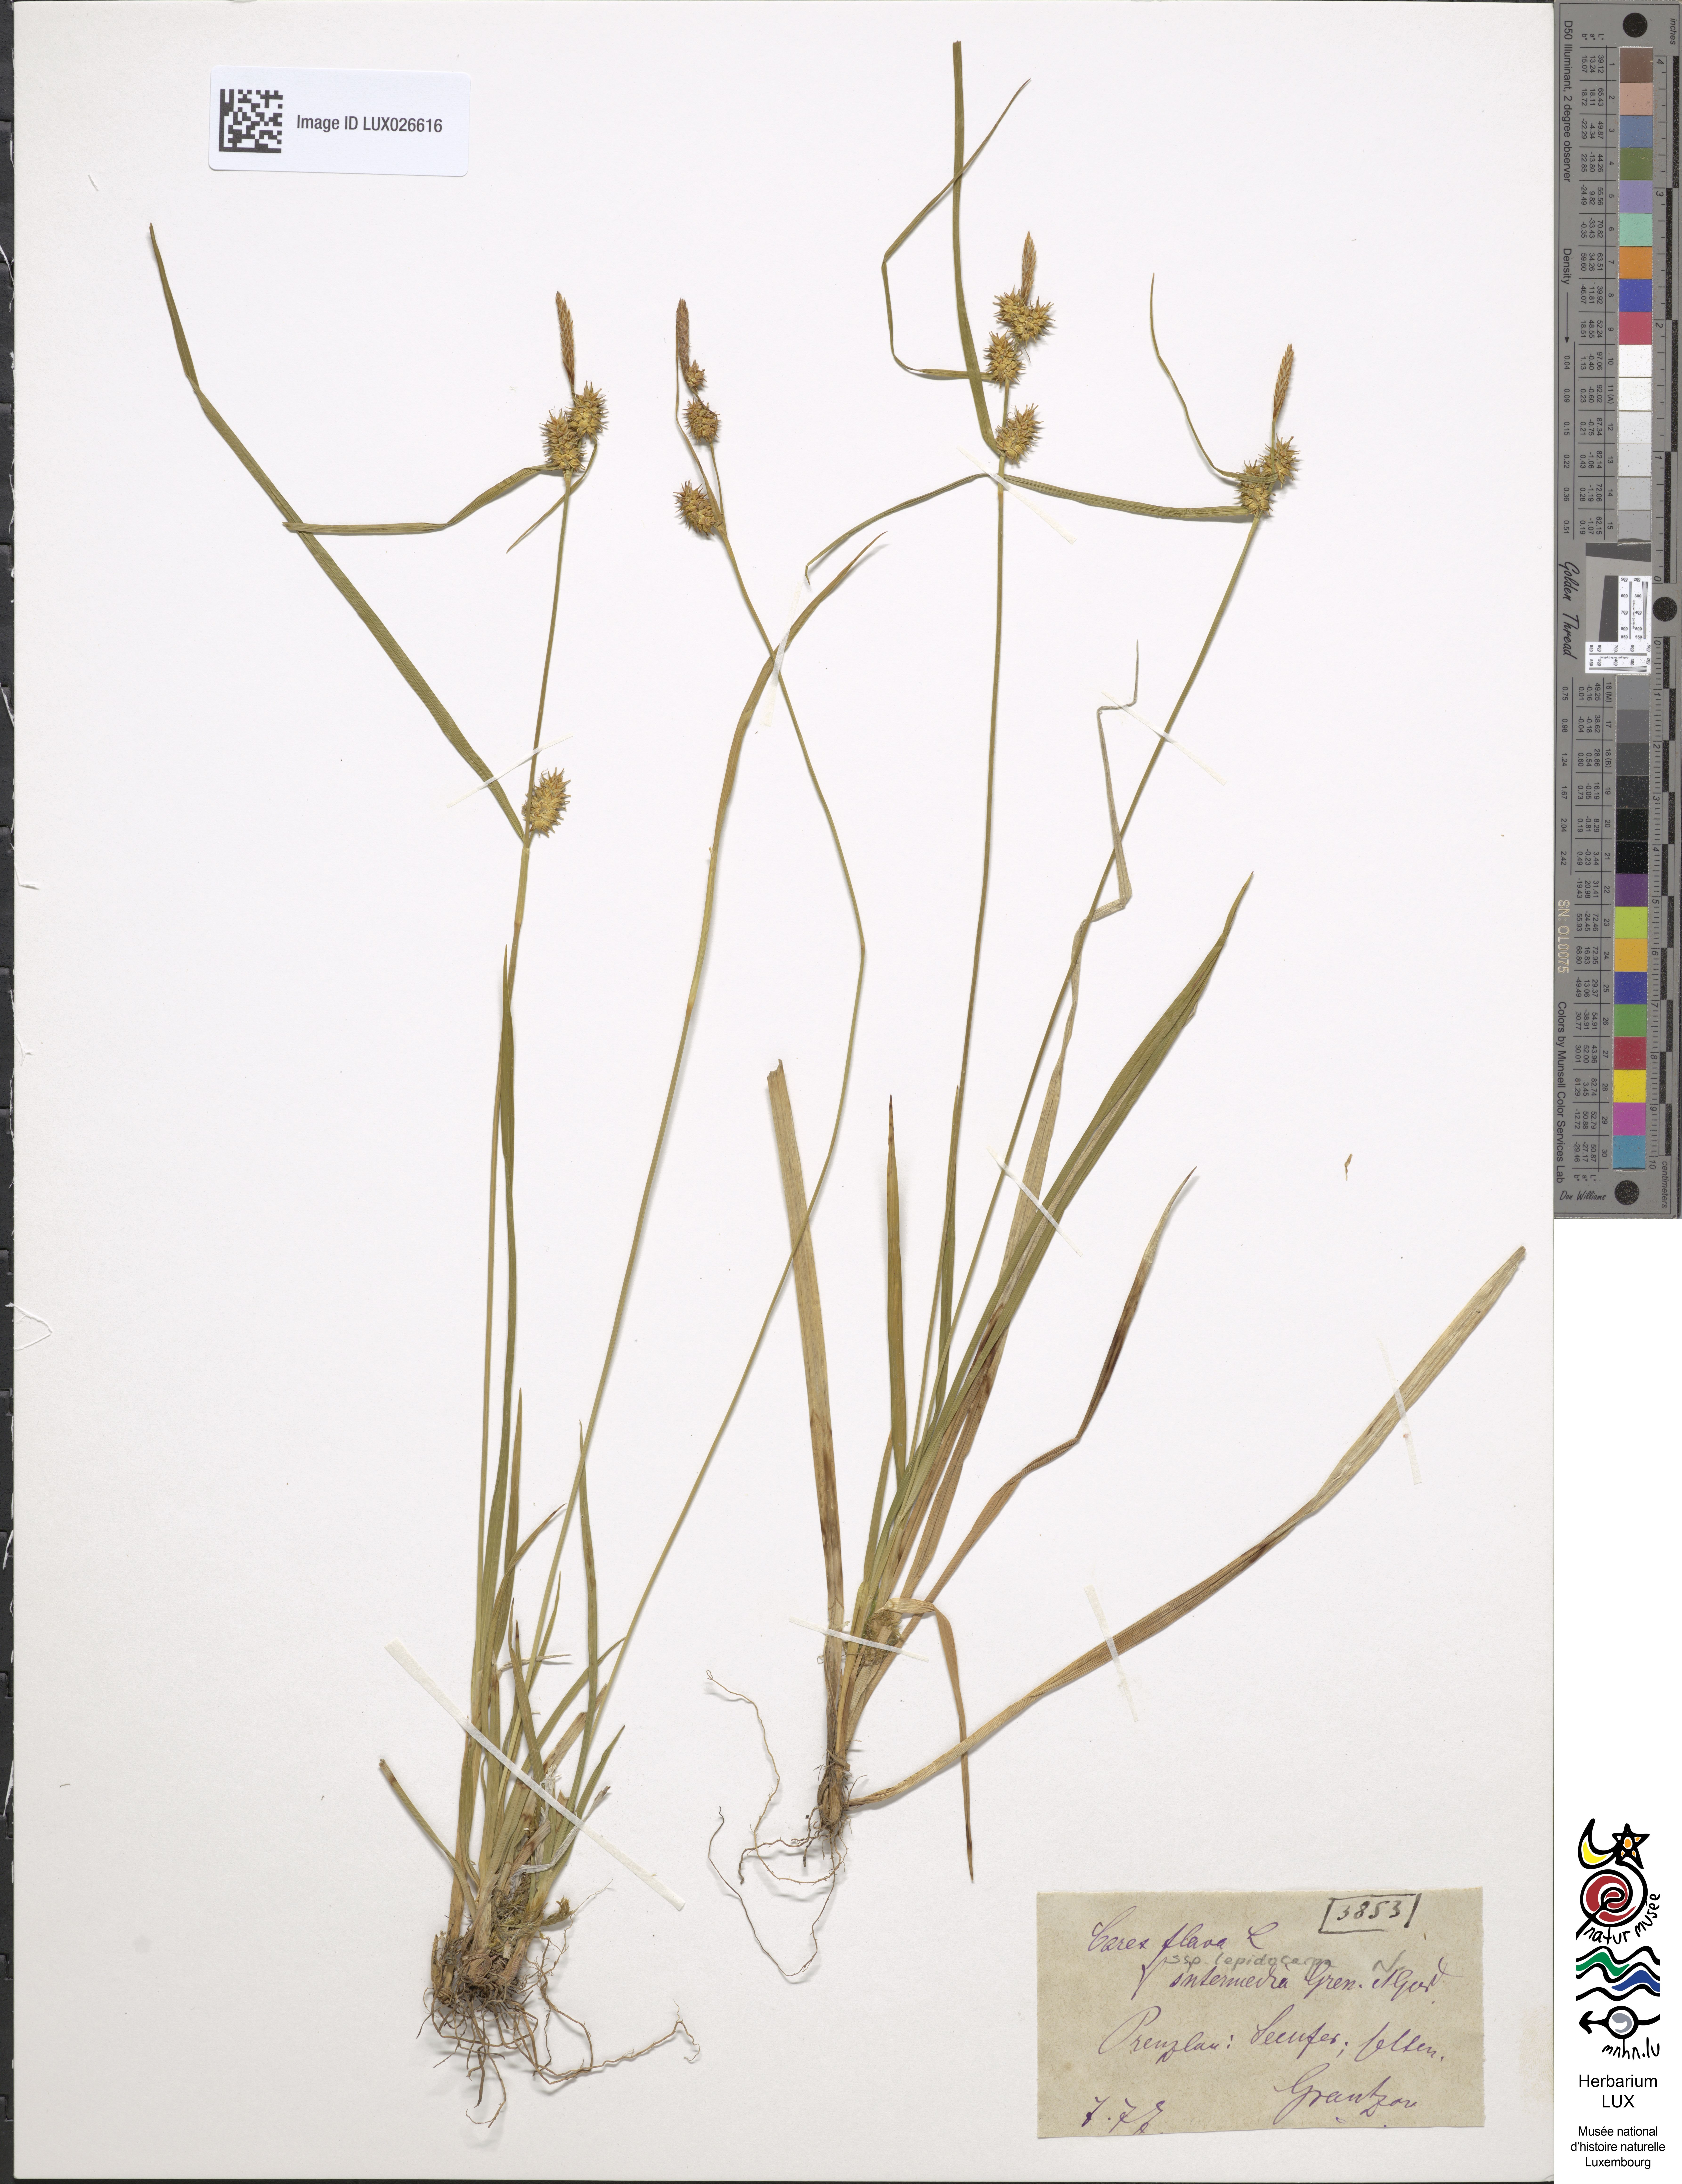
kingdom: Plantae
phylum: Tracheophyta
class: Liliopsida
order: Poales
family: Cyperaceae
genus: Carex
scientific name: Carex flava
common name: Large yellow-sedge
